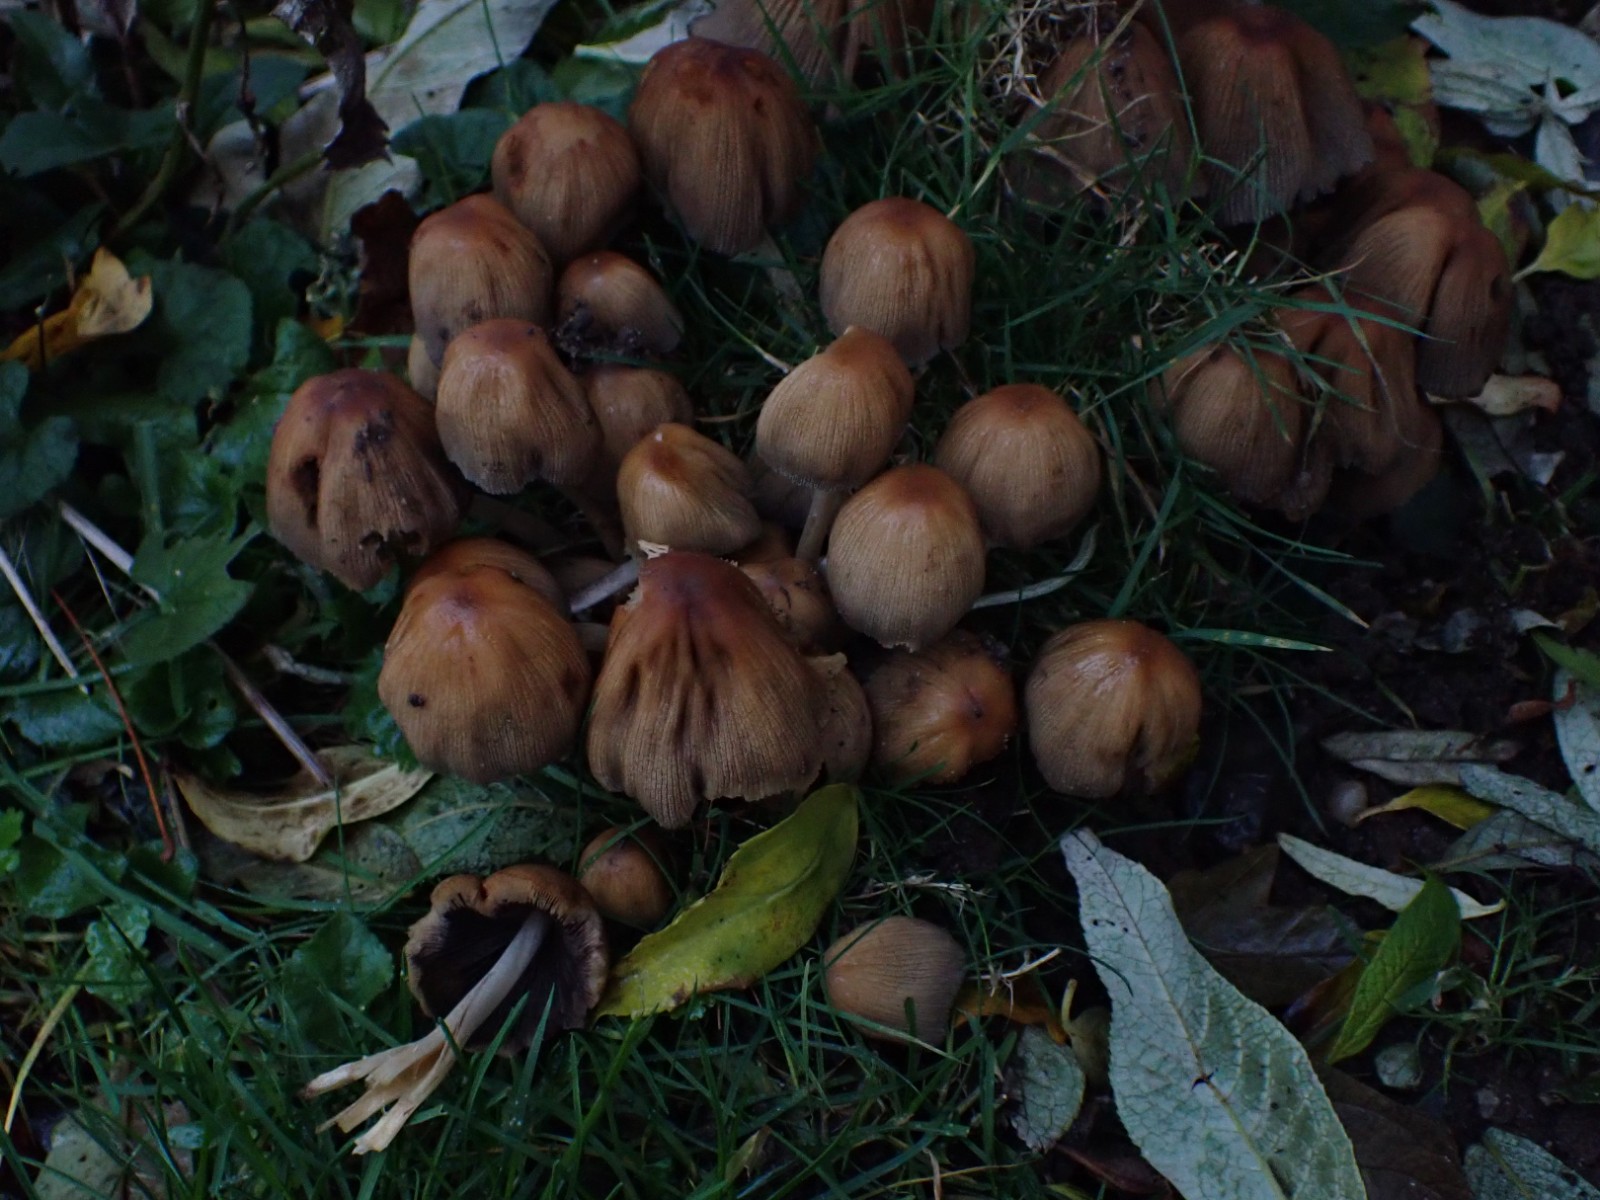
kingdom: Fungi
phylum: Basidiomycota
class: Agaricomycetes
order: Agaricales
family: Psathyrellaceae
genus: Coprinellus
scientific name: Coprinellus micaceus
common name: glimmer-blækhat
